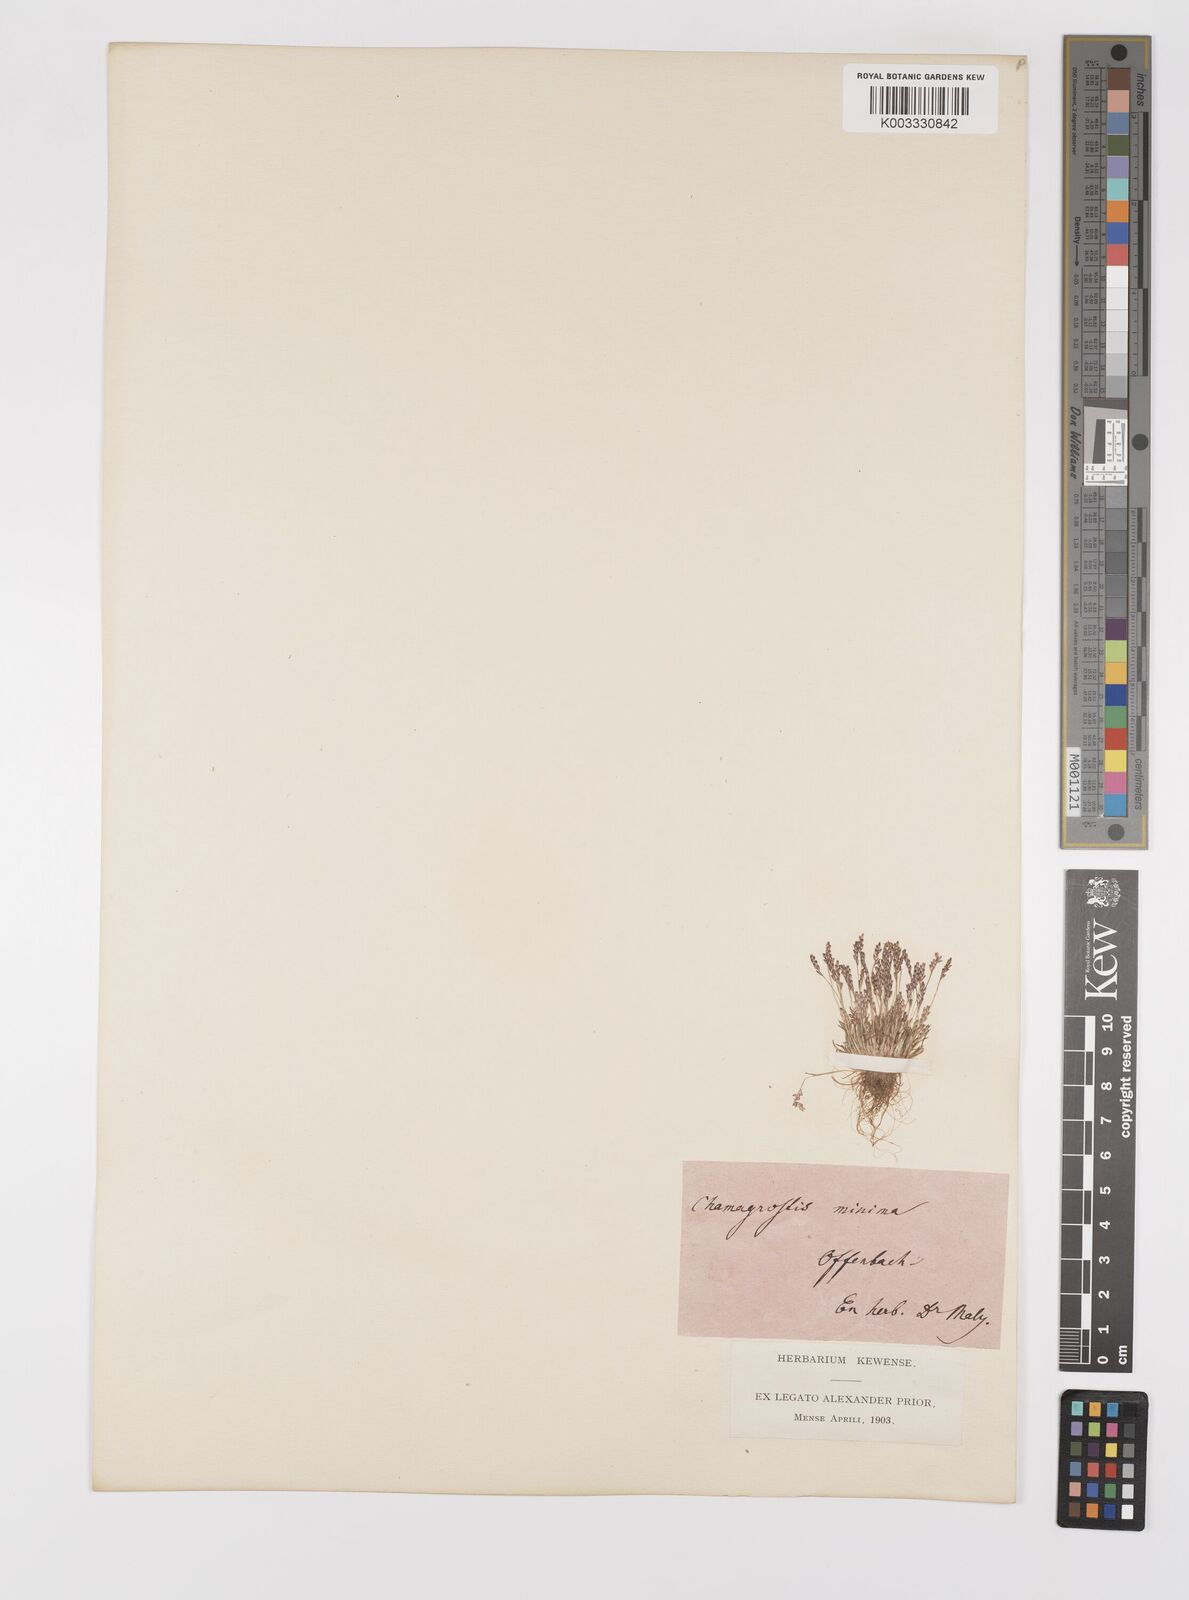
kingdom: Plantae
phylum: Tracheophyta
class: Liliopsida
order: Poales
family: Poaceae
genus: Mibora
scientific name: Mibora minima
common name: Early sand-grass
